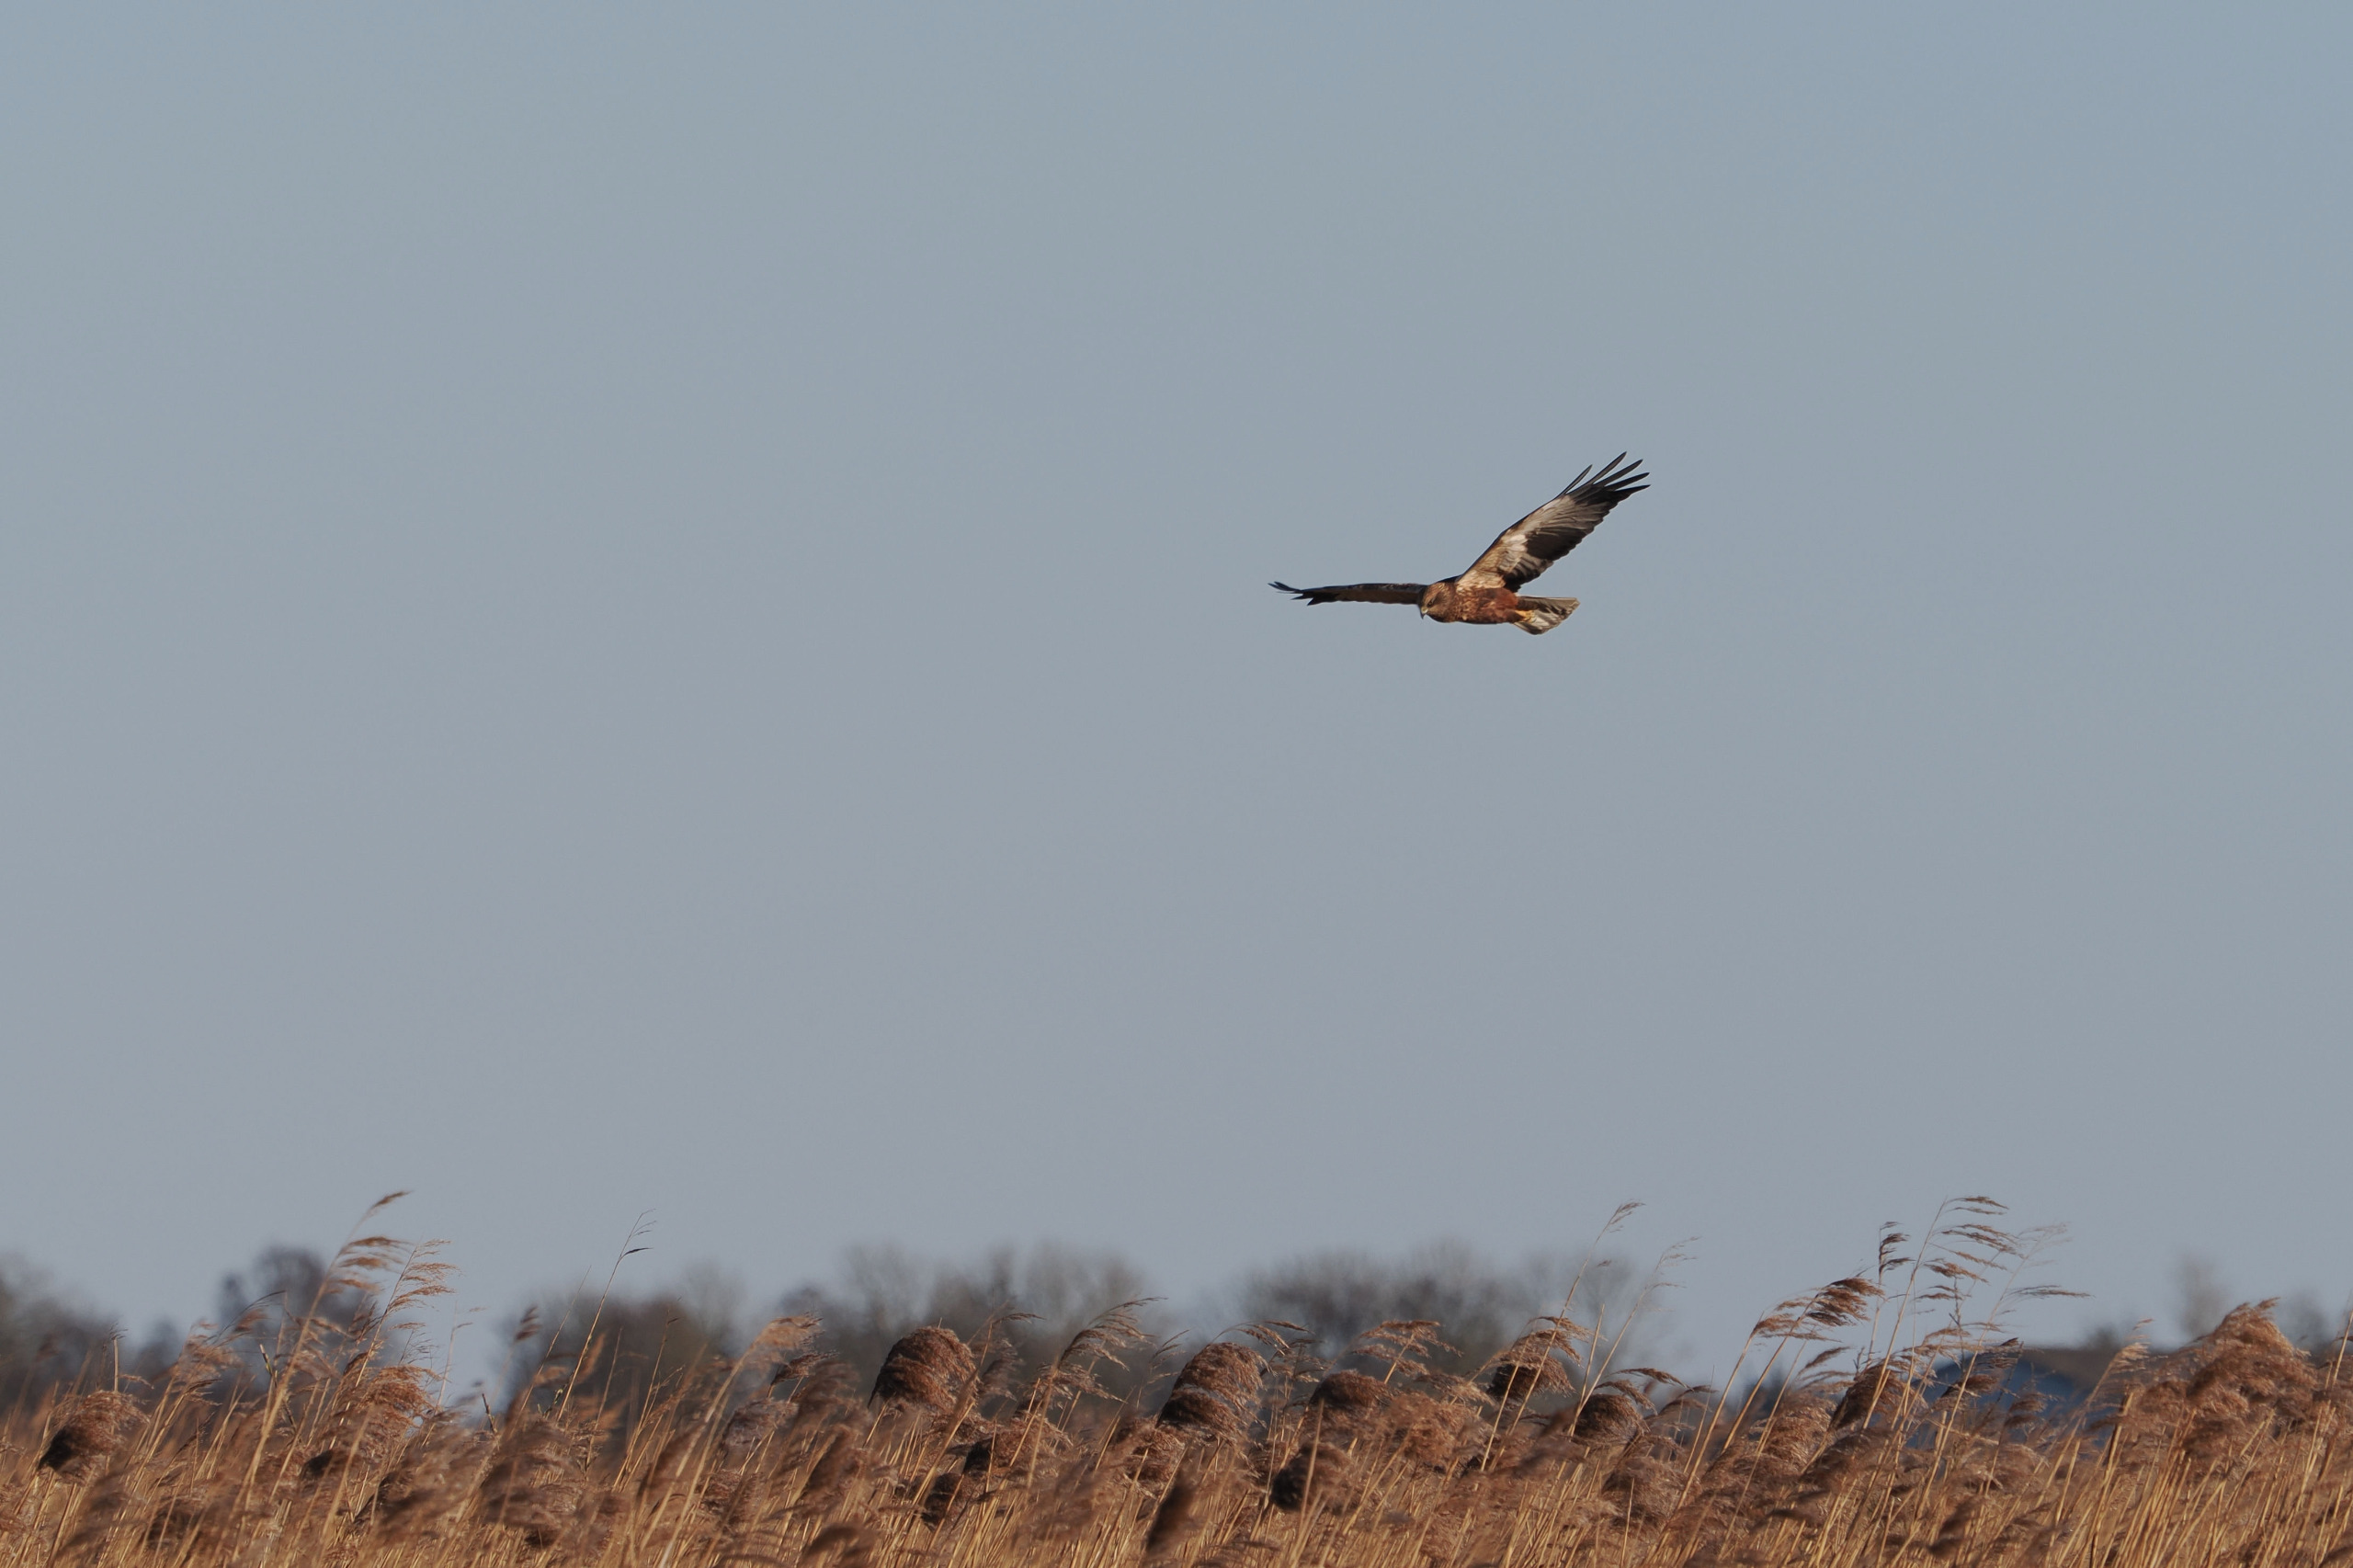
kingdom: Animalia
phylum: Chordata
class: Aves
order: Accipitriformes
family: Accipitridae
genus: Circus
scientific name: Circus aeruginosus
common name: Rørhøg
